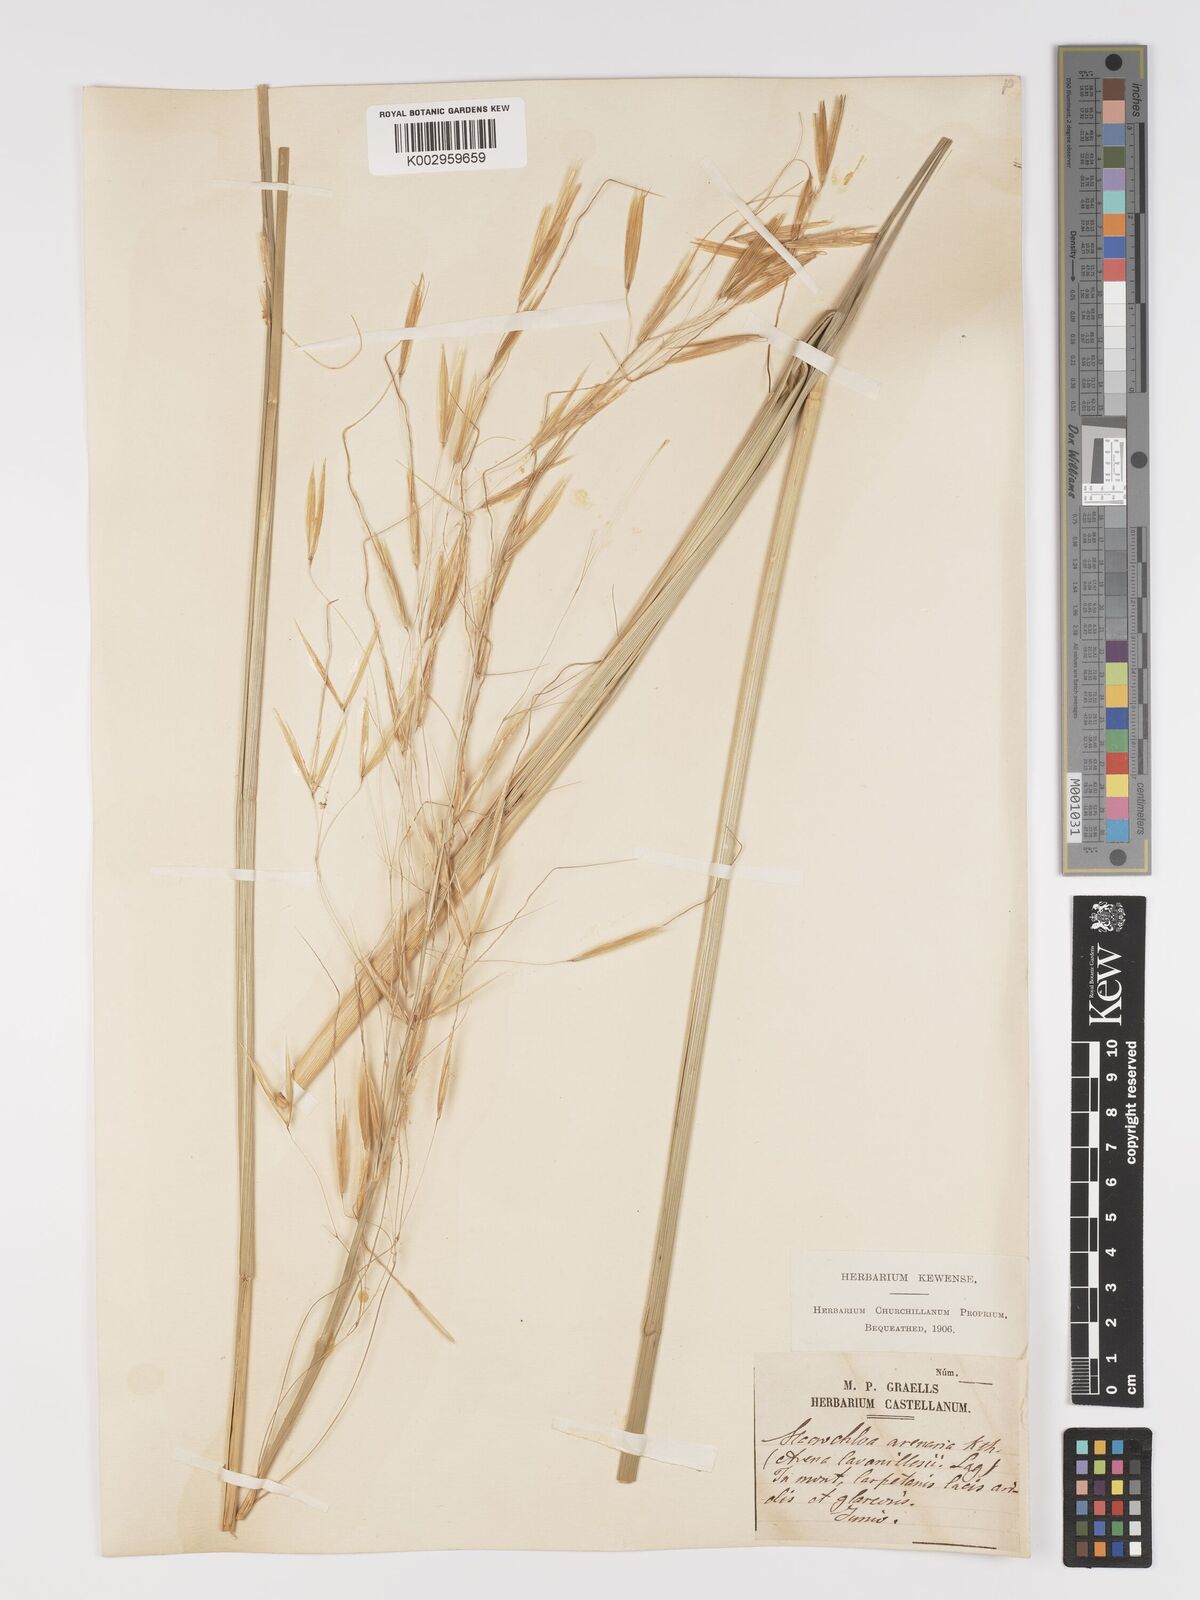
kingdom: Plantae
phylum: Tracheophyta
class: Liliopsida
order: Poales
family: Poaceae
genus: Celtica
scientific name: Celtica gigantea
